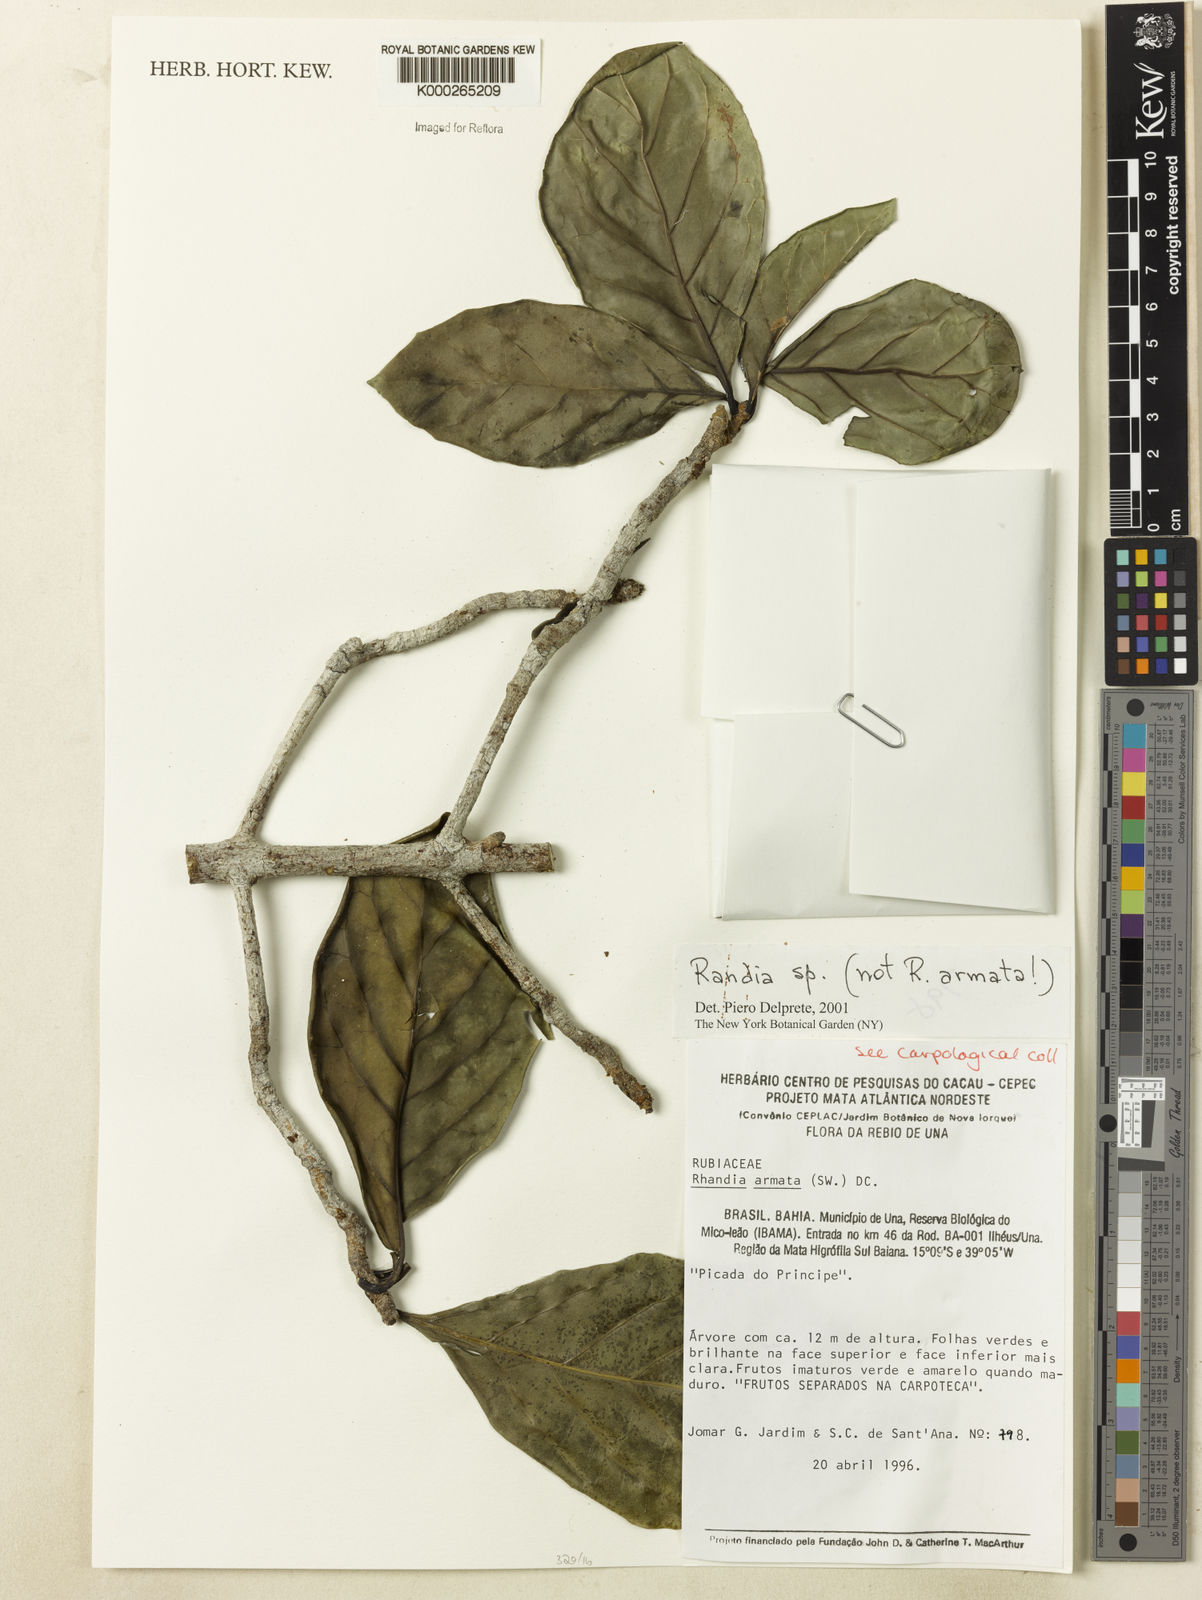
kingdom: Plantae
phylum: Tracheophyta
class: Magnoliopsida
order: Gentianales
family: Rubiaceae
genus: Randia
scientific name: Randia
